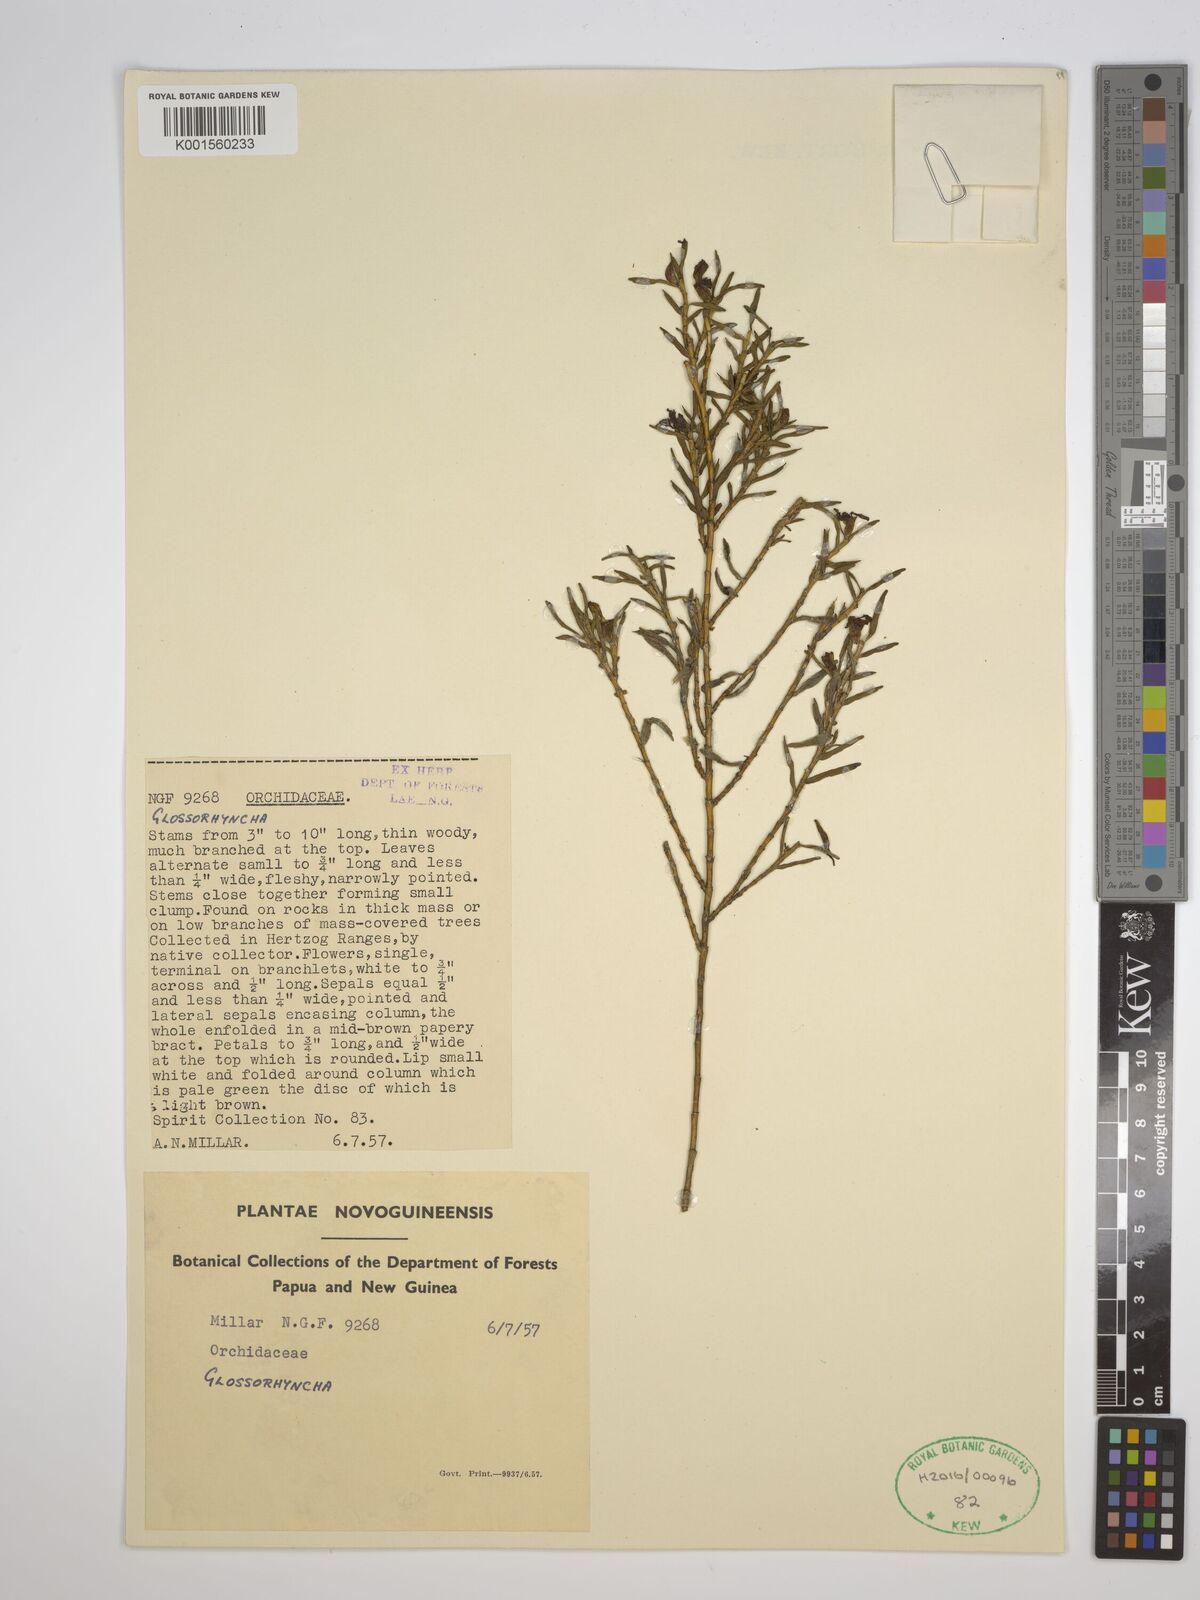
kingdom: Plantae
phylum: Tracheophyta
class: Liliopsida
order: Asparagales
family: Orchidaceae
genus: Glomera
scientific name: Glomera
